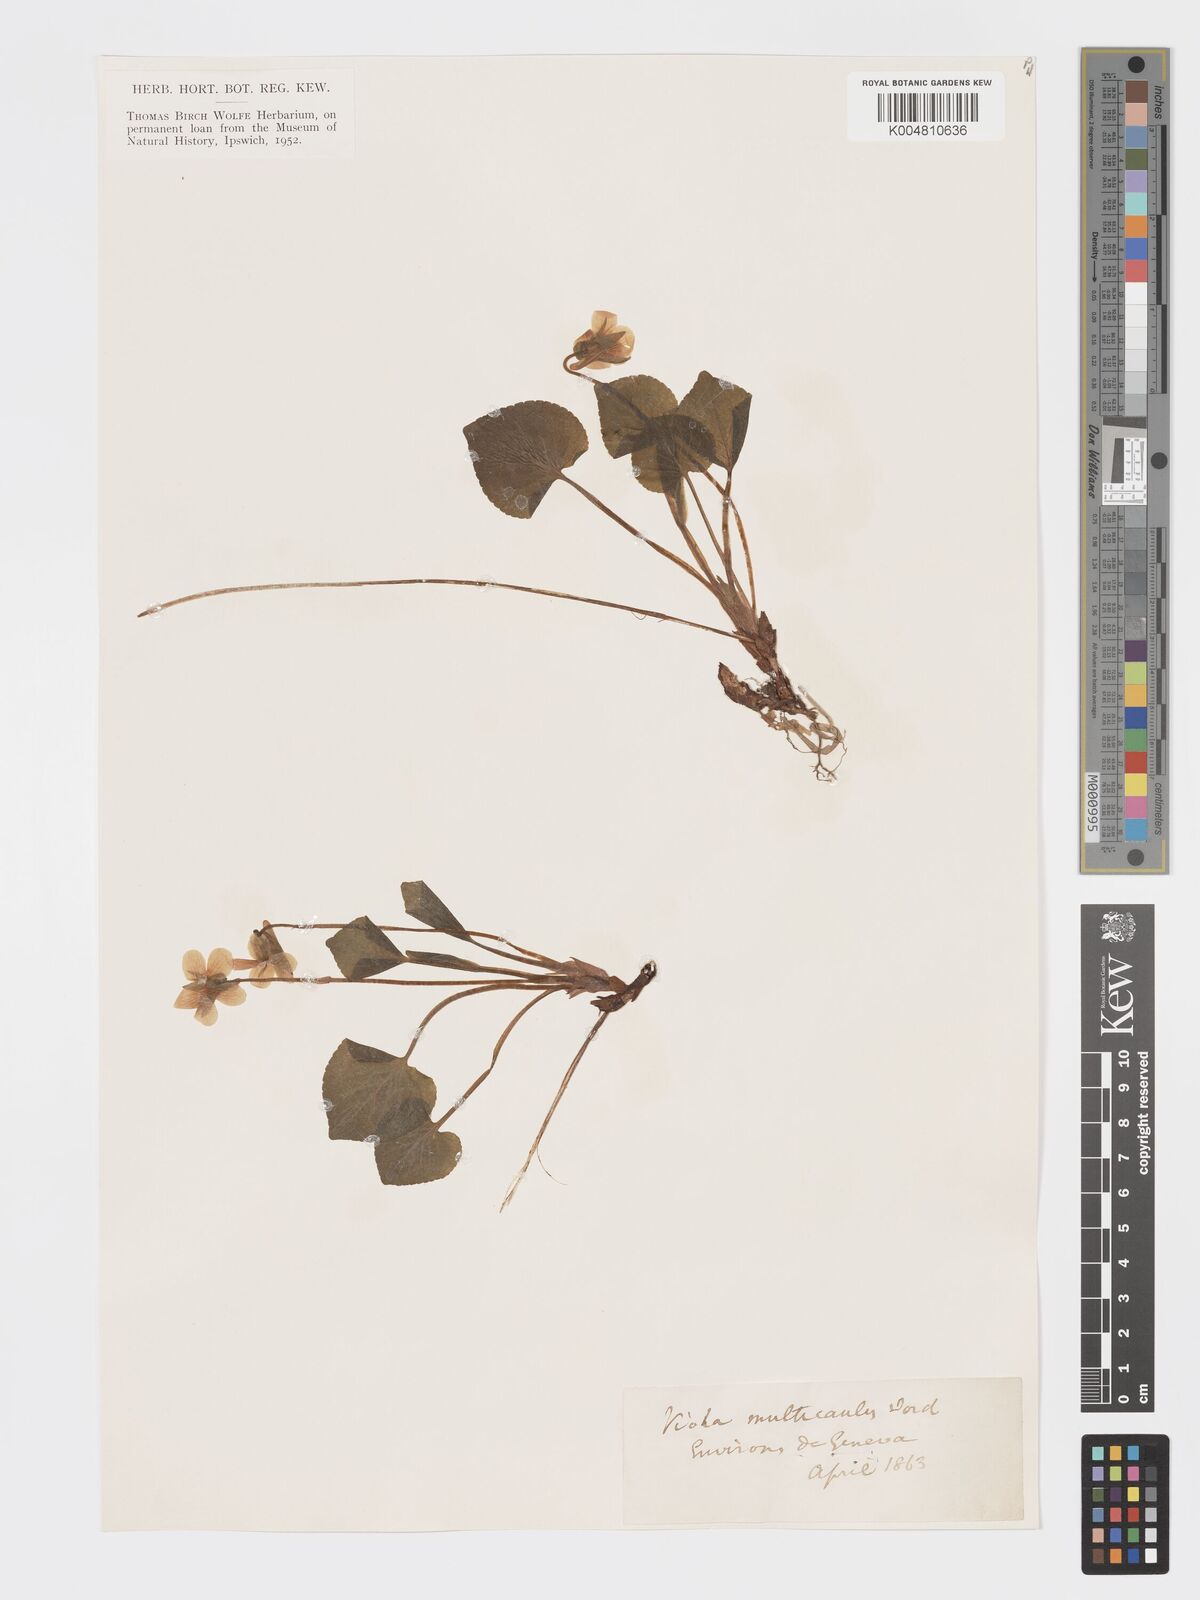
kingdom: Plantae
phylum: Tracheophyta
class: Magnoliopsida
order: Malpighiales
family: Violaceae
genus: Viola
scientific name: Viola mirabilis
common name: Wonder violet
